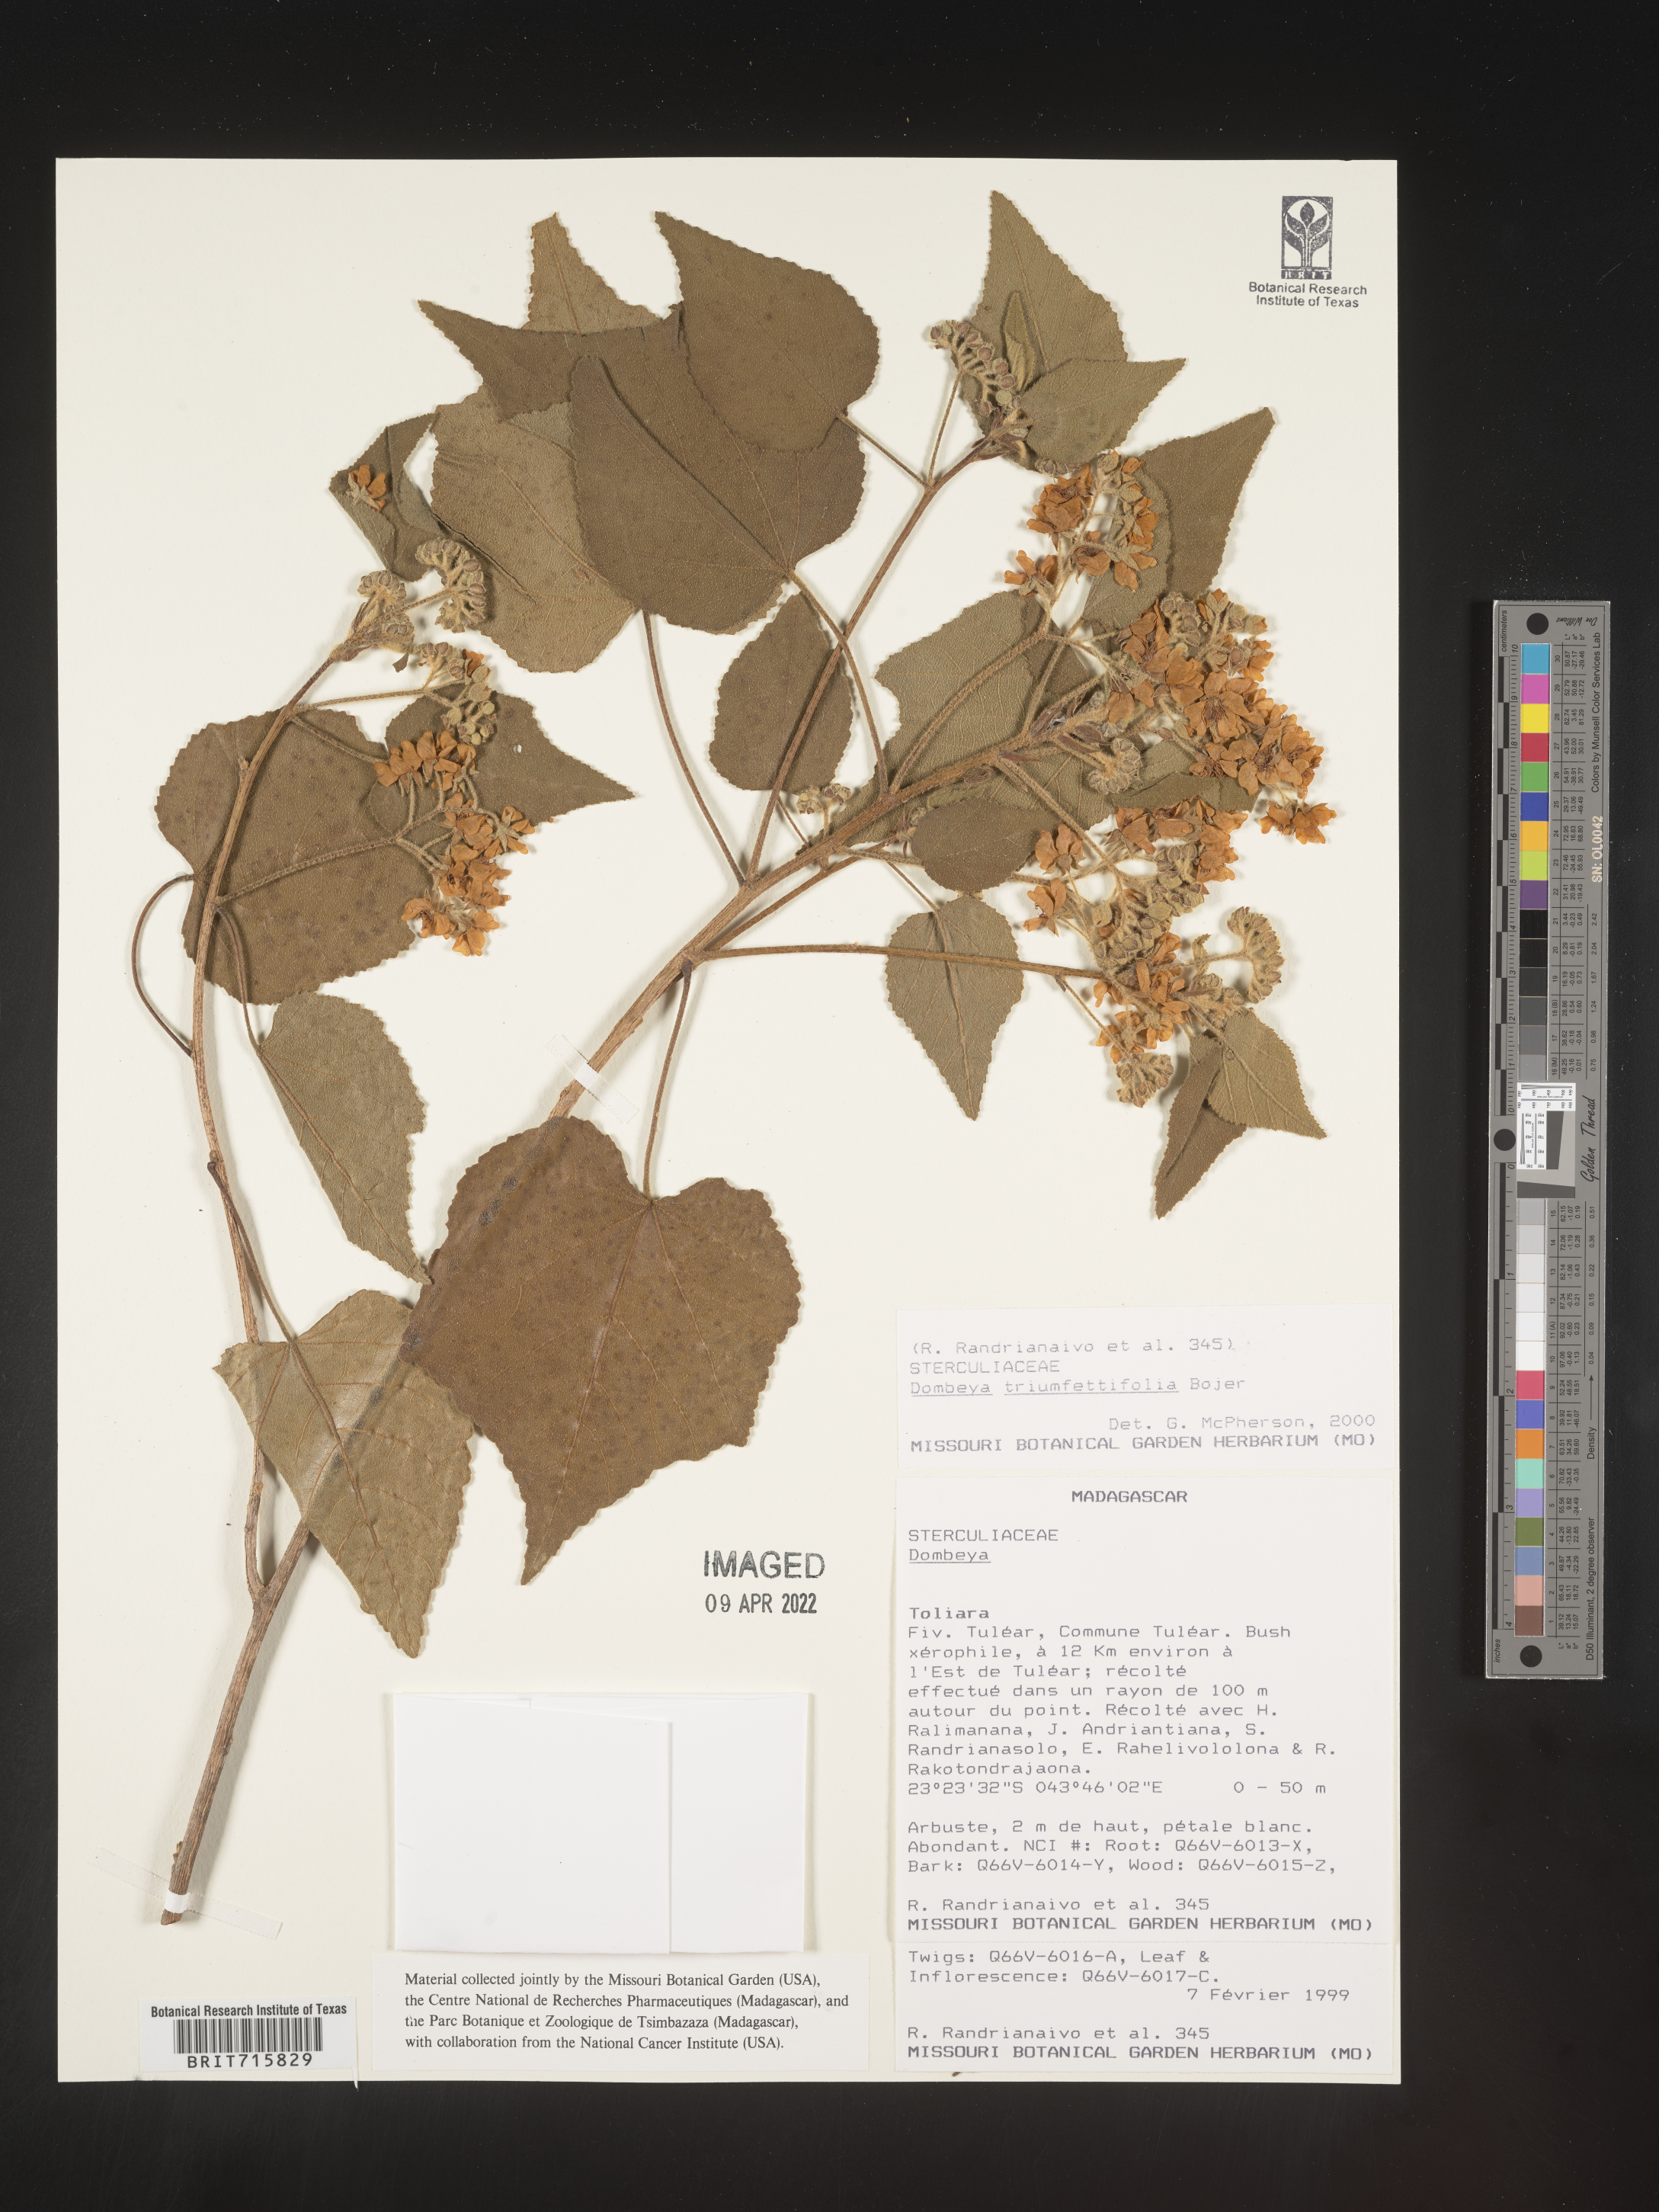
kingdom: Plantae
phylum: Tracheophyta
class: Magnoliopsida
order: Malvales
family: Malvaceae
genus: Dombeya
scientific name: Dombeya
